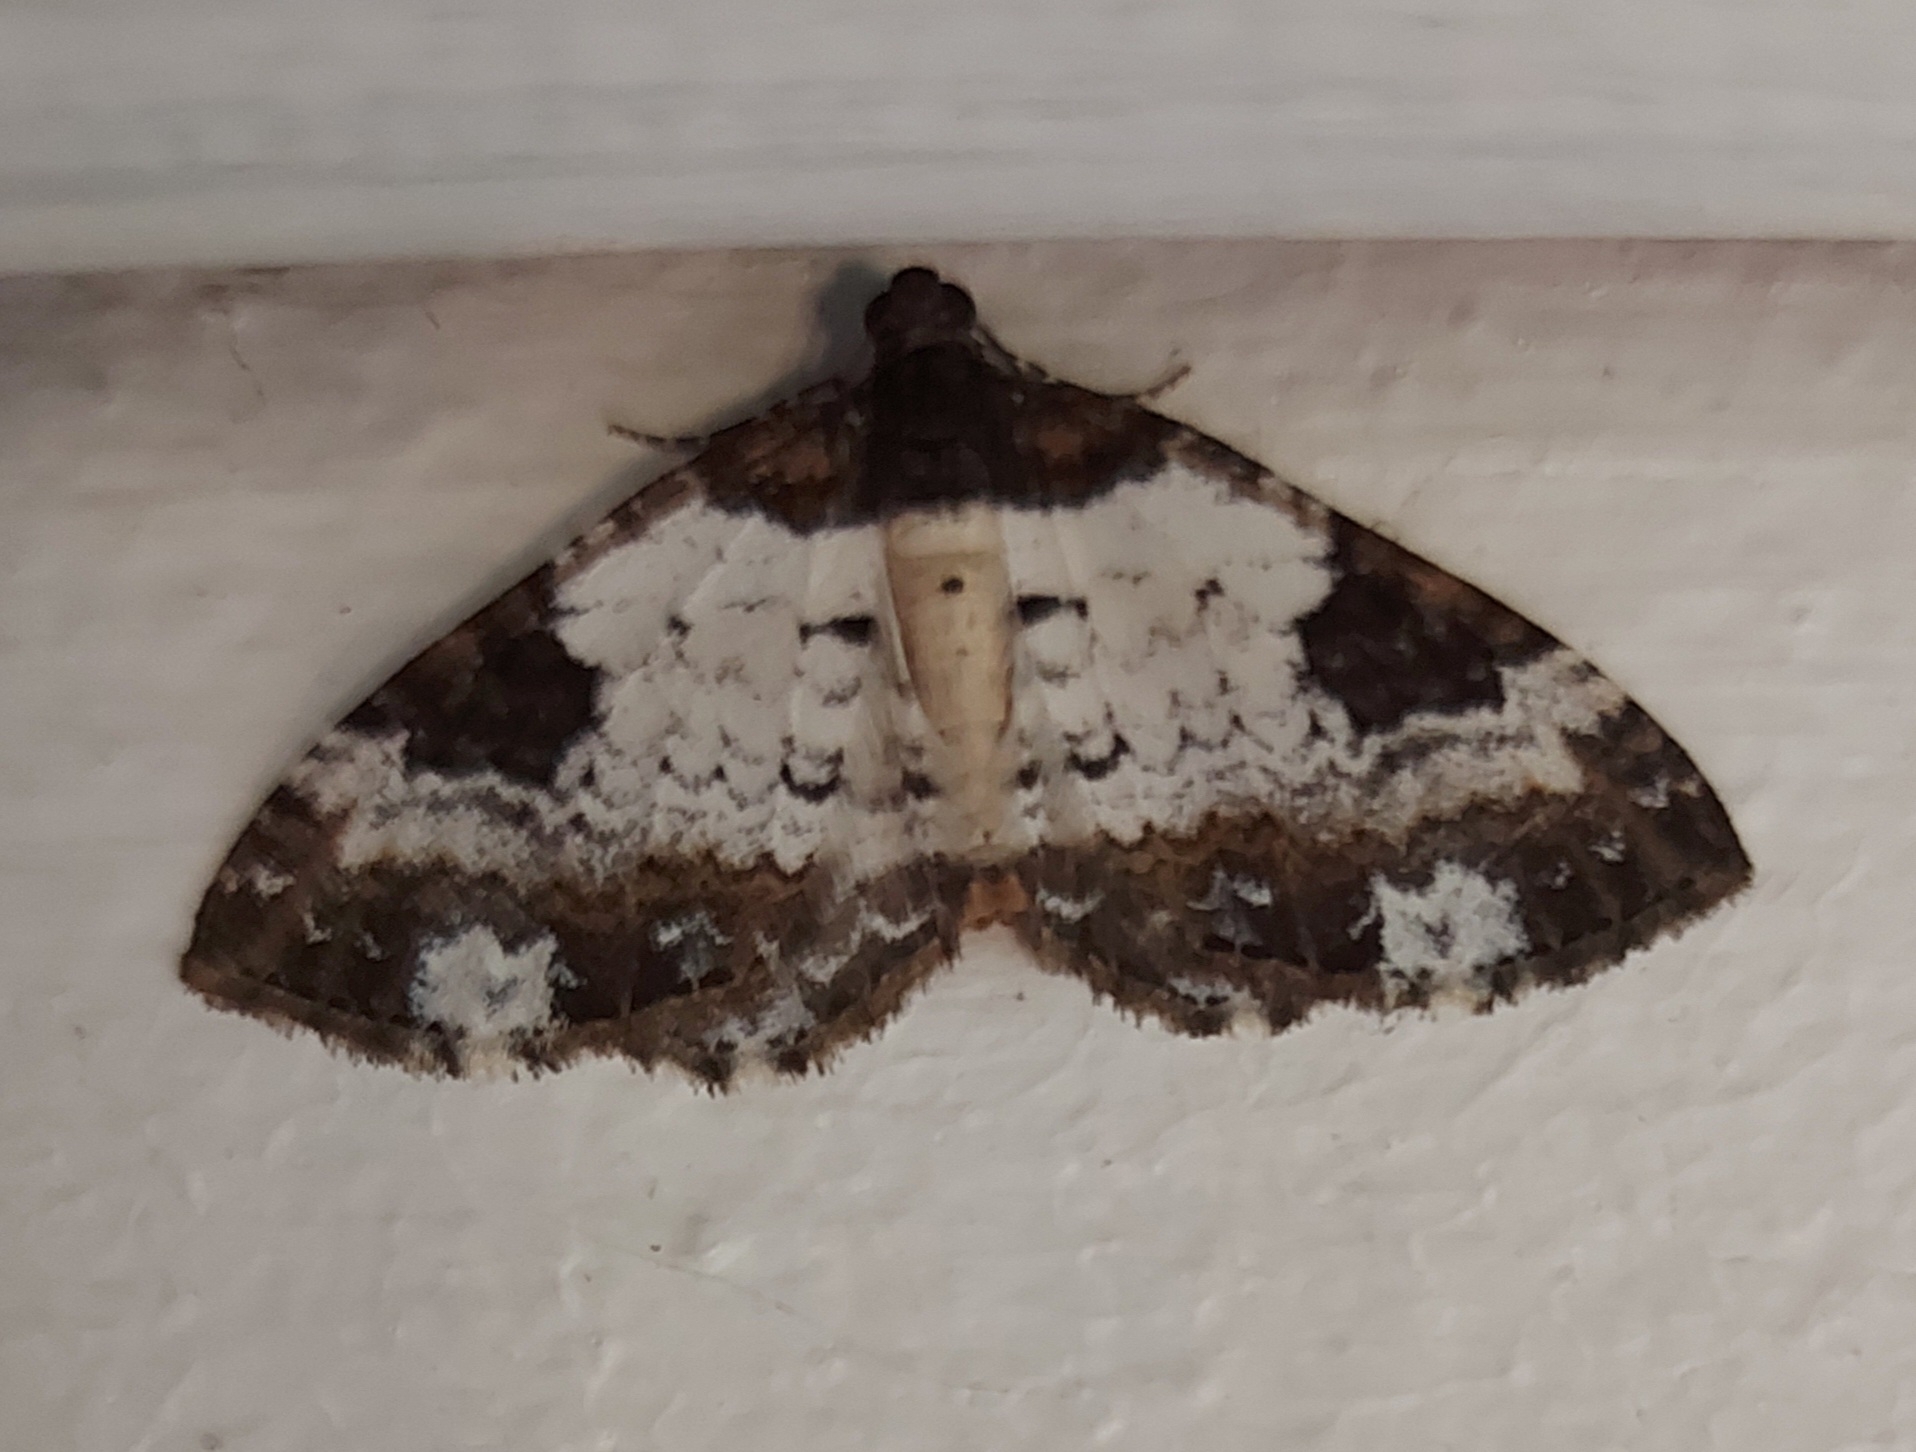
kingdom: Animalia
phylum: Arthropoda
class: Insecta
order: Lepidoptera
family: Geometridae
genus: Melanthia
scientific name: Melanthia procellata
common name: Klematismåler
